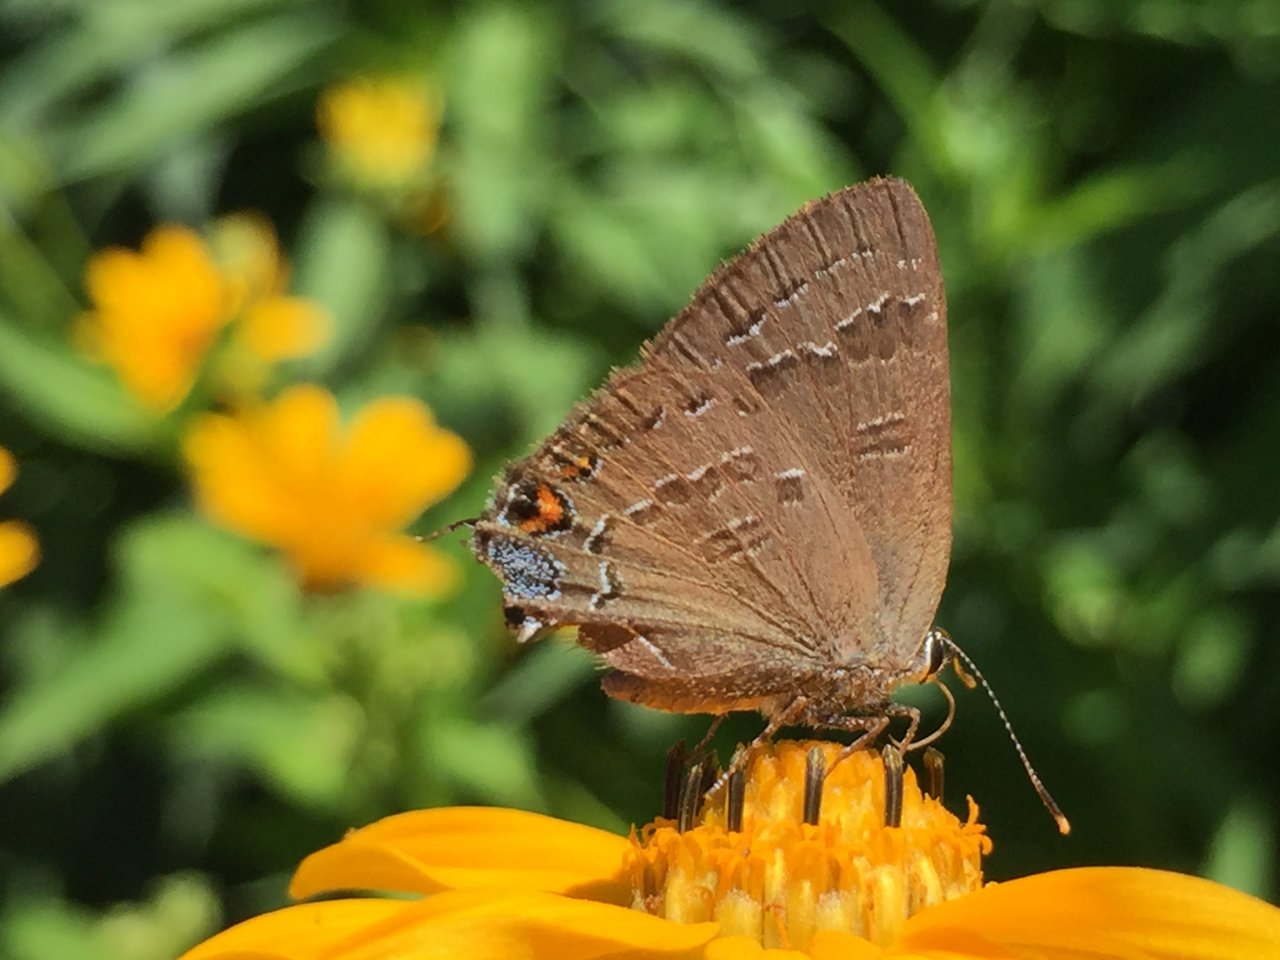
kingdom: Animalia
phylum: Arthropoda
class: Insecta
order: Lepidoptera
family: Lycaenidae
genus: Satyrium
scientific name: Satyrium calanus
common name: Banded Hairstreak
